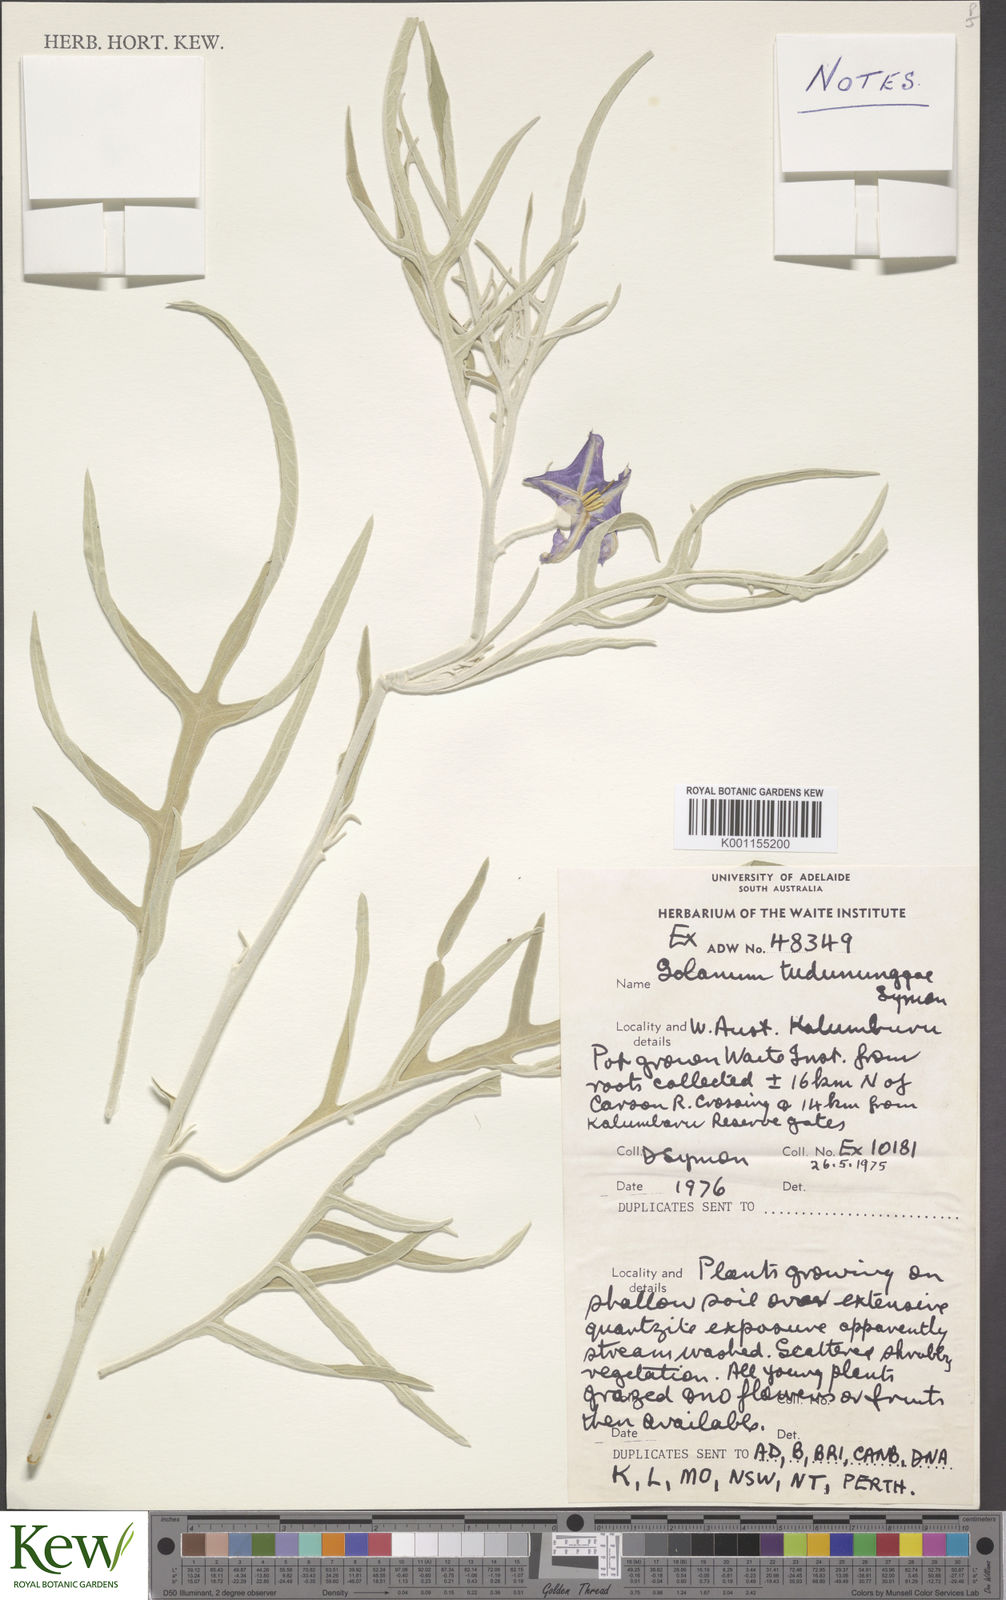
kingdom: Plantae
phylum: Tracheophyta
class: Magnoliopsida
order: Solanales
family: Solanaceae
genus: Solanum
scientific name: Solanum tudununggae
